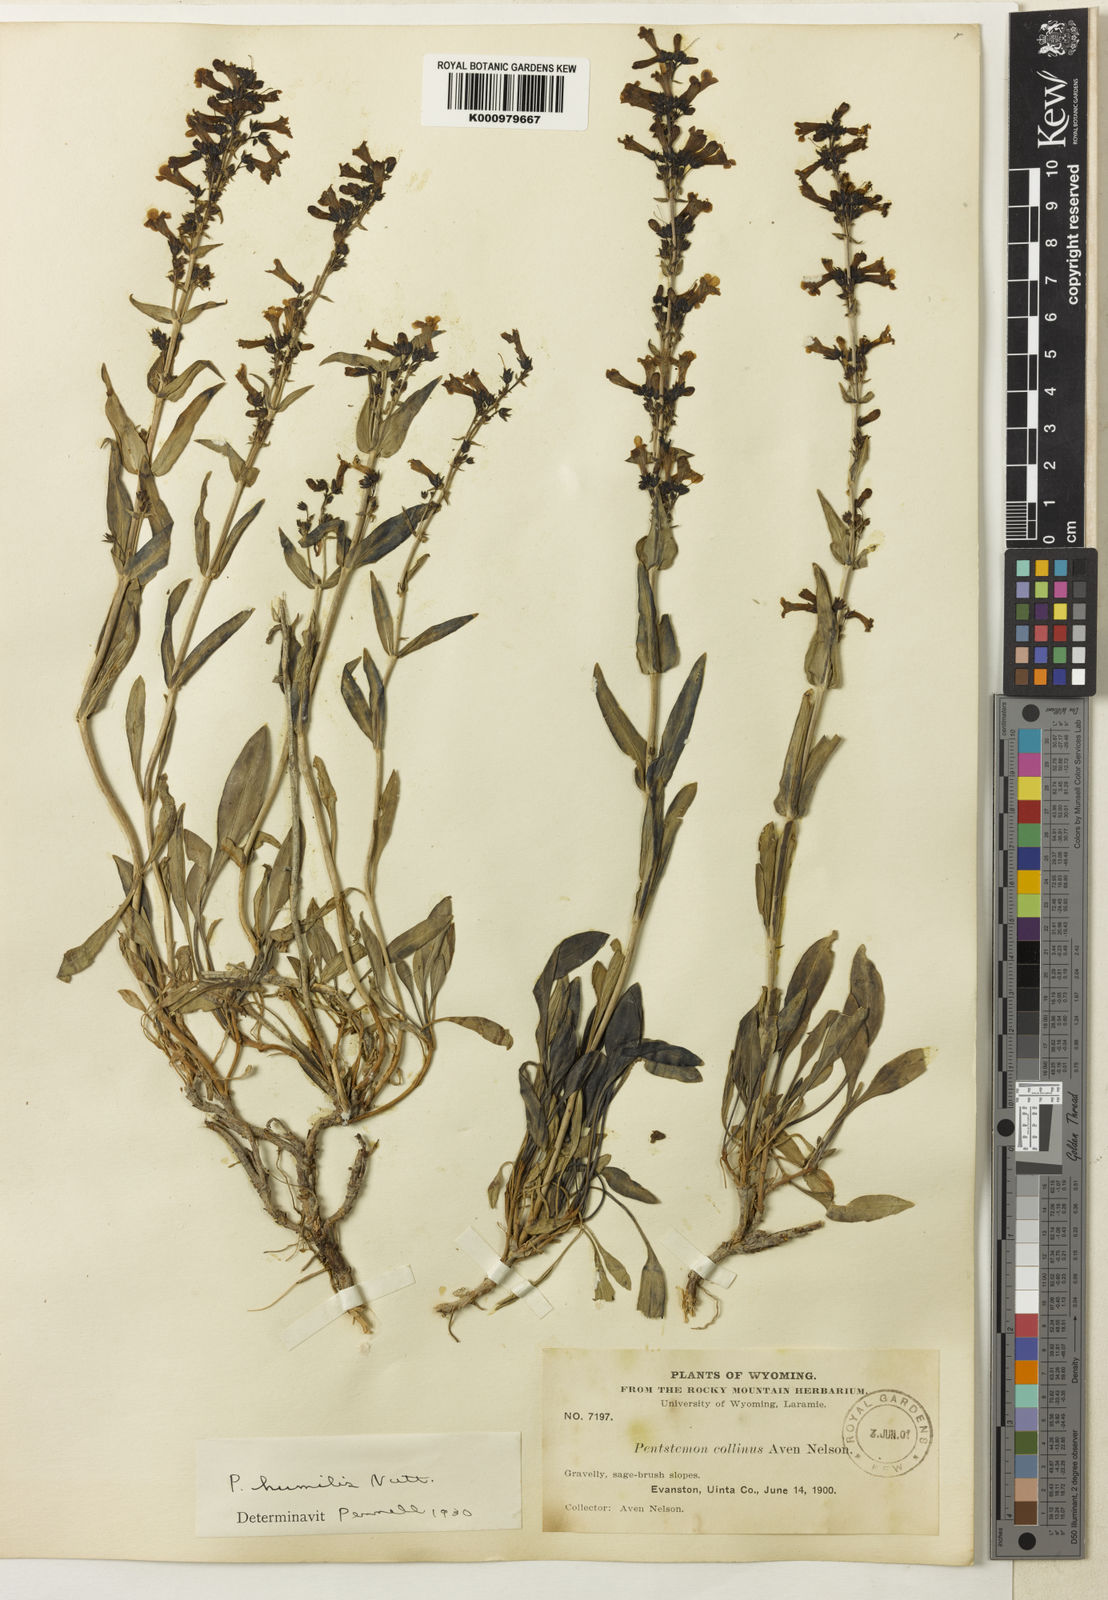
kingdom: Plantae
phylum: Tracheophyta
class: Magnoliopsida
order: Lamiales
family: Plantaginaceae
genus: Penstemon
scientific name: Penstemon
